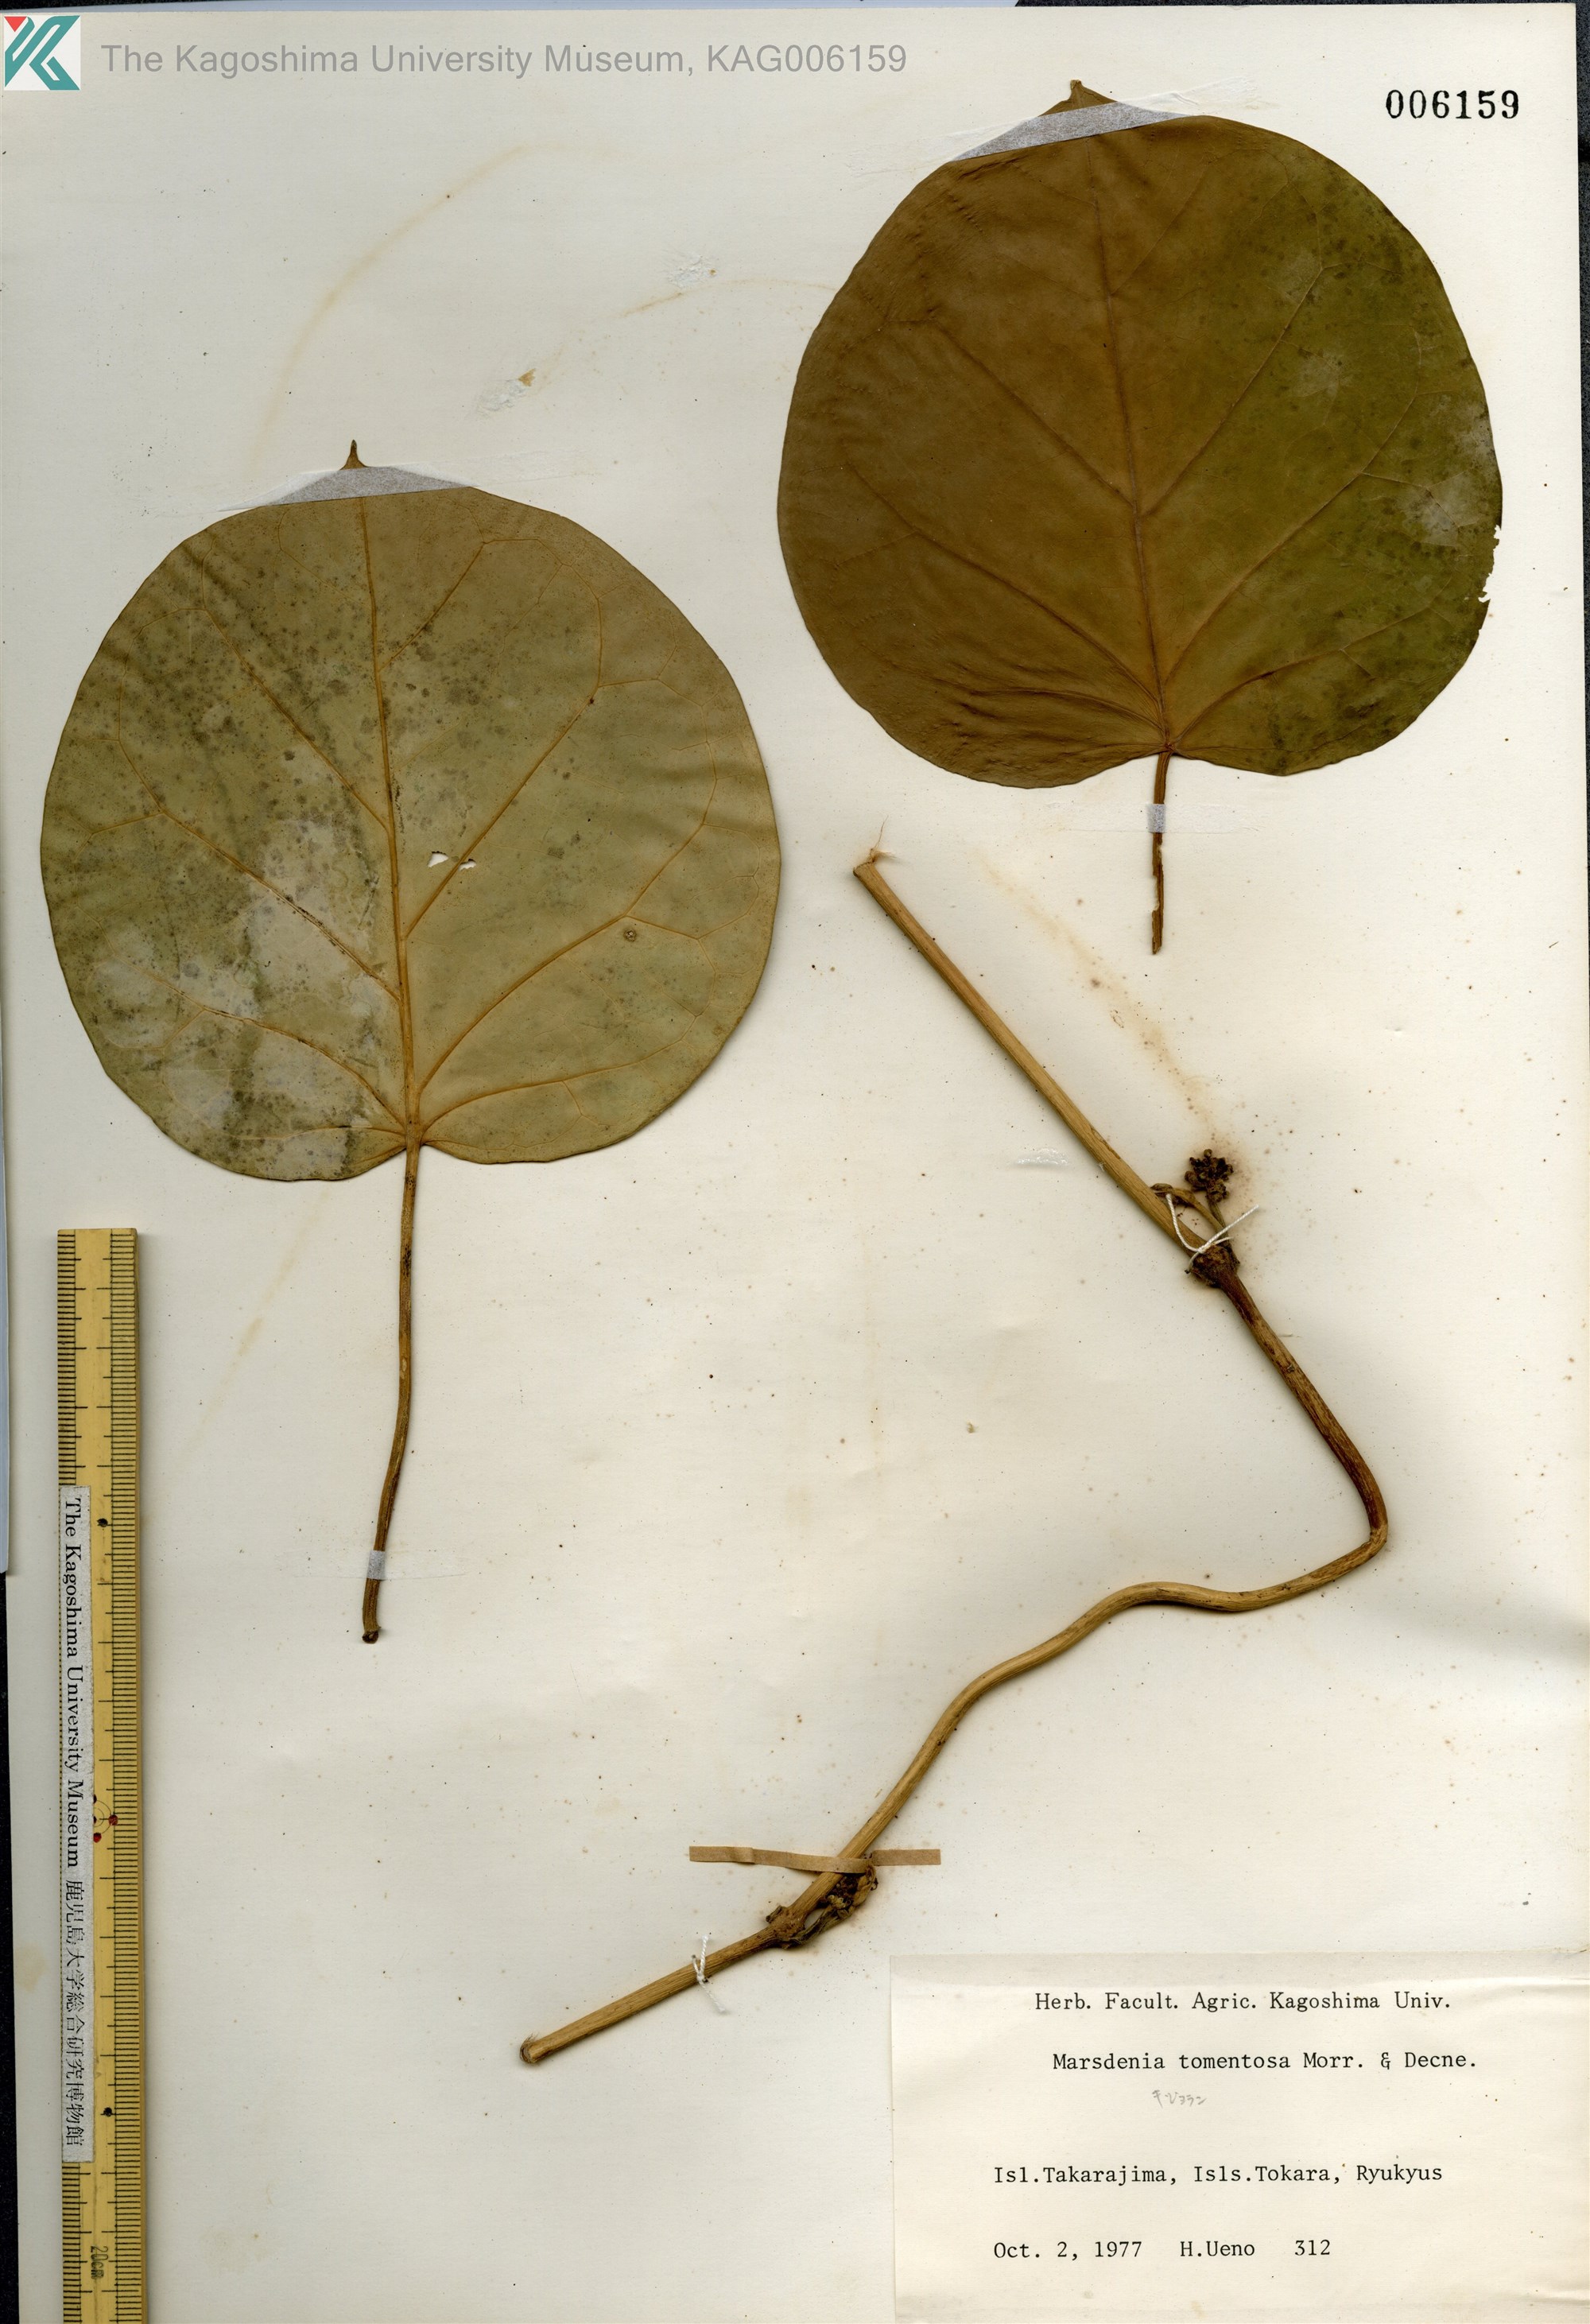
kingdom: Plantae
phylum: Tracheophyta
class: Magnoliopsida
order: Gentianales
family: Apocynaceae
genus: Sinomarsdenia
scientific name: Sinomarsdenia tomentosa
